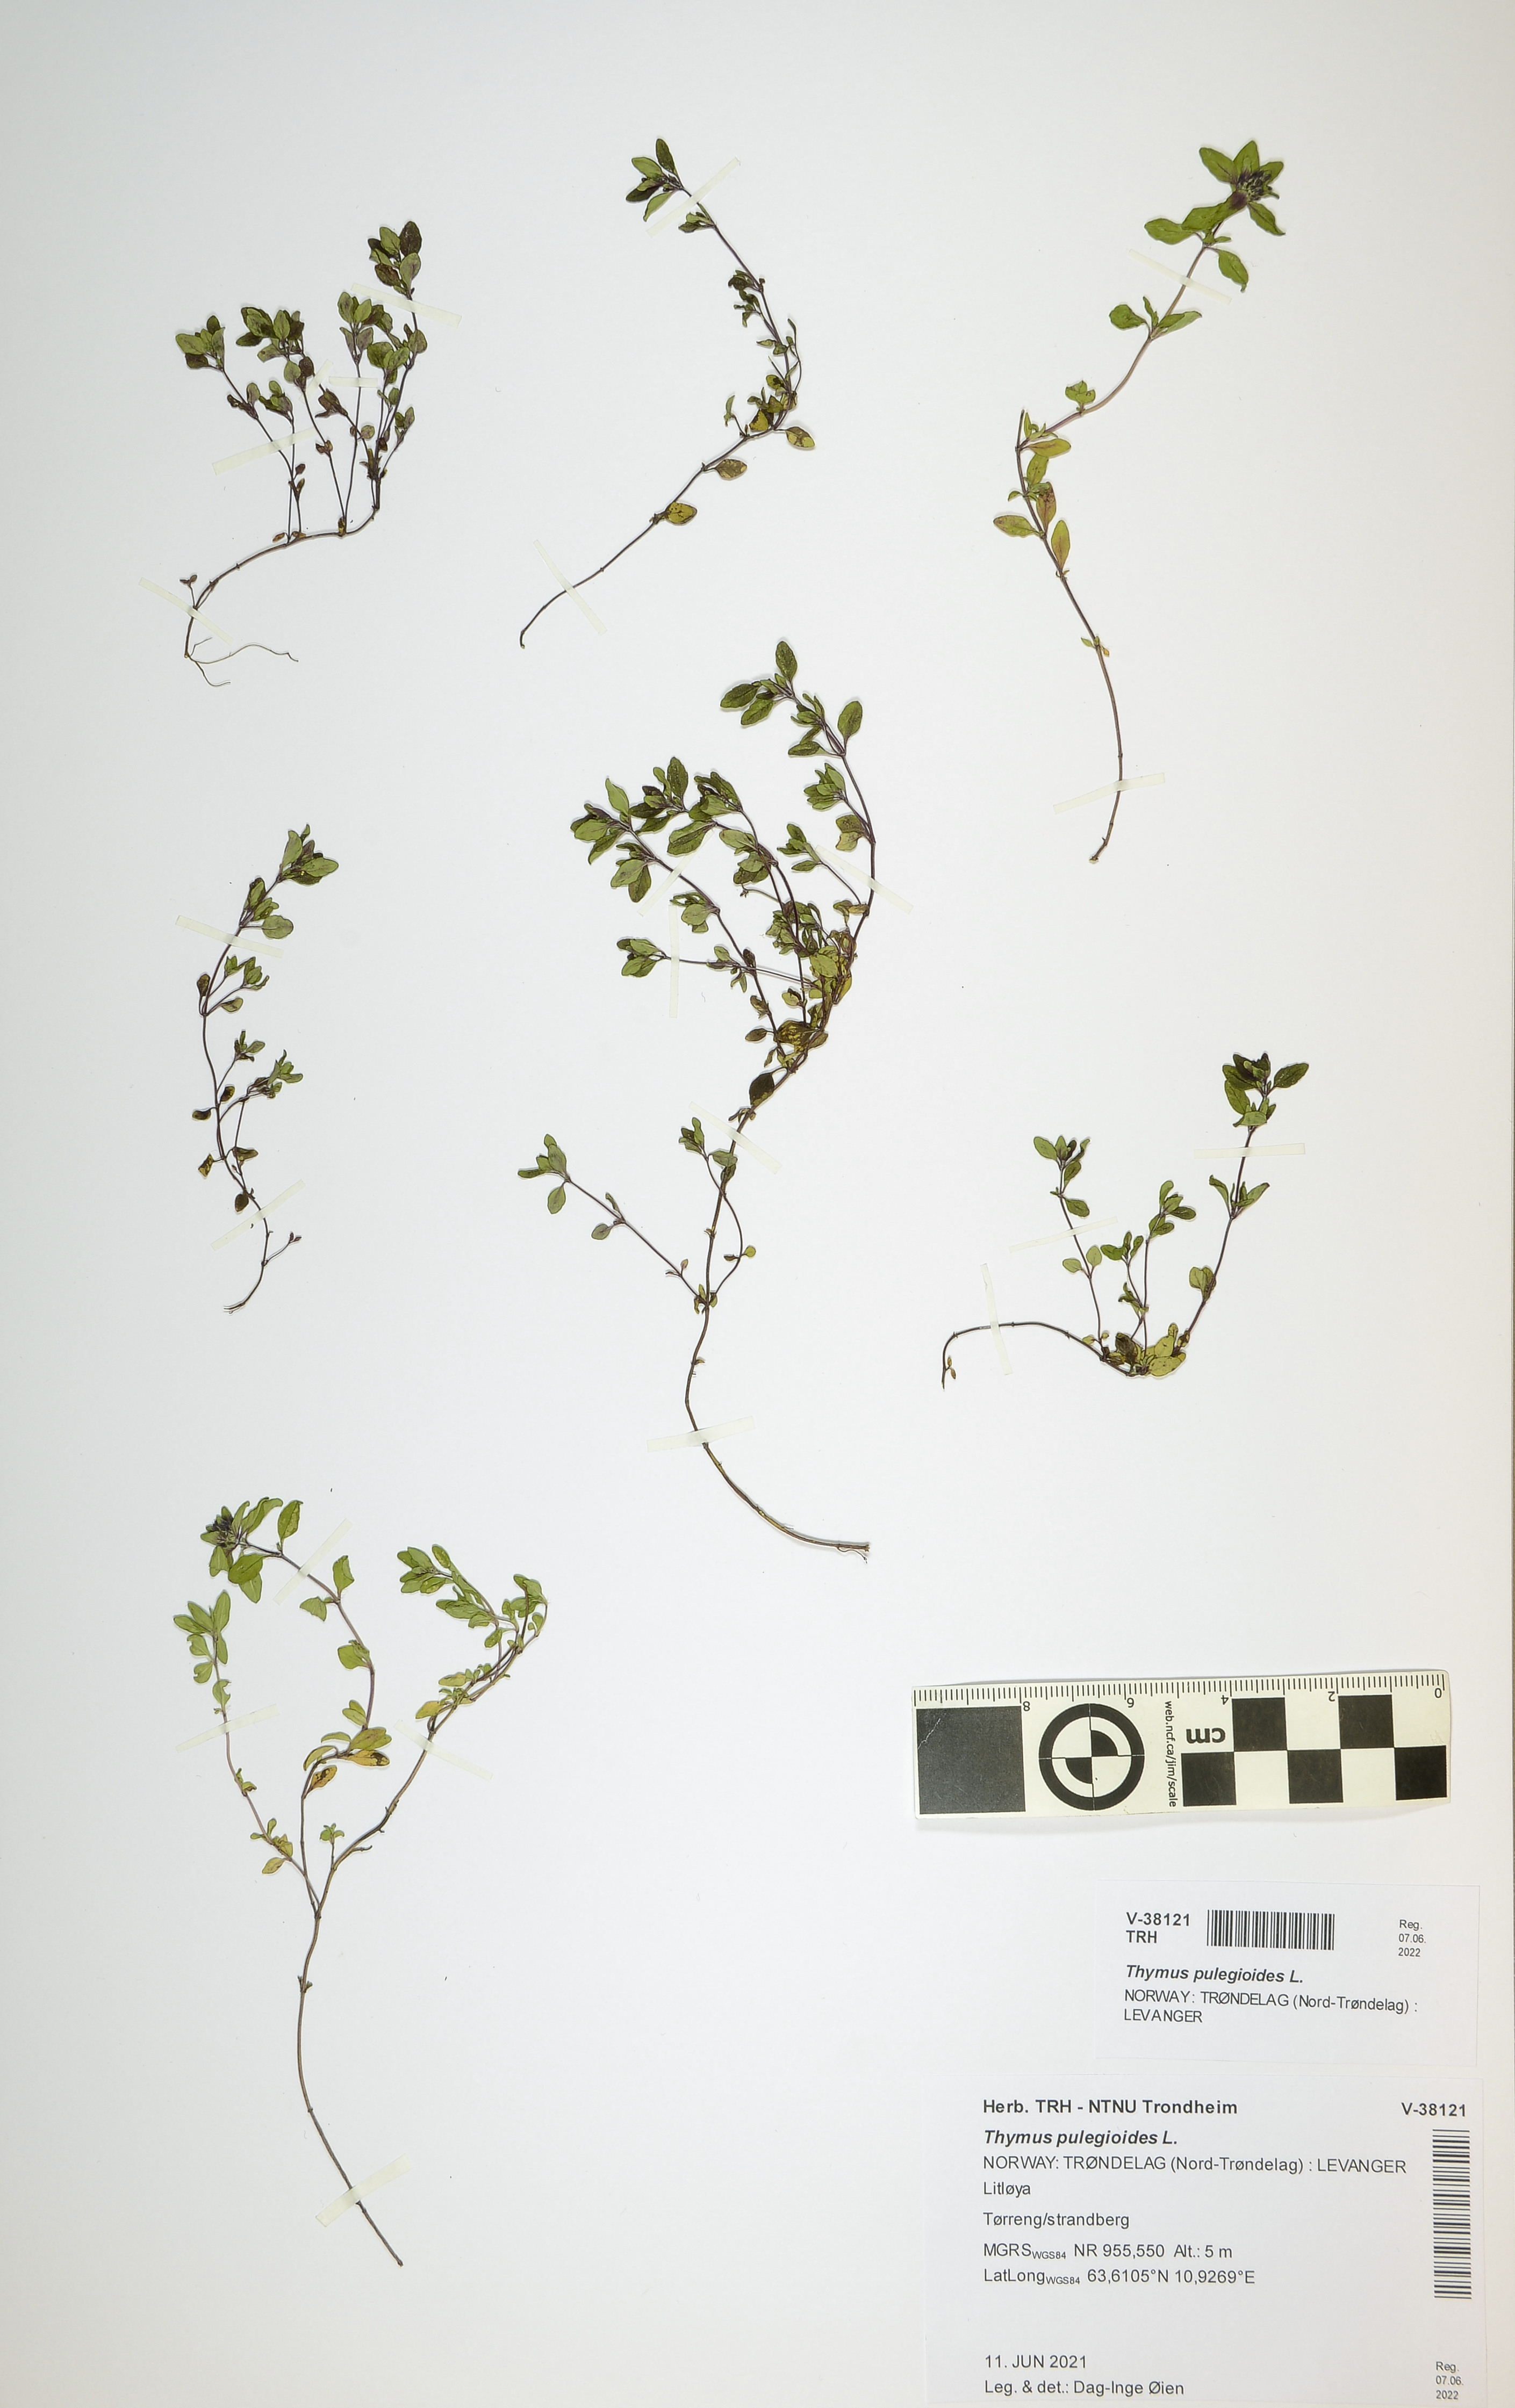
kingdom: Plantae
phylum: Tracheophyta
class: Magnoliopsida
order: Lamiales
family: Lamiaceae
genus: Thymus
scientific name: Thymus pulegioides
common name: Large thyme
